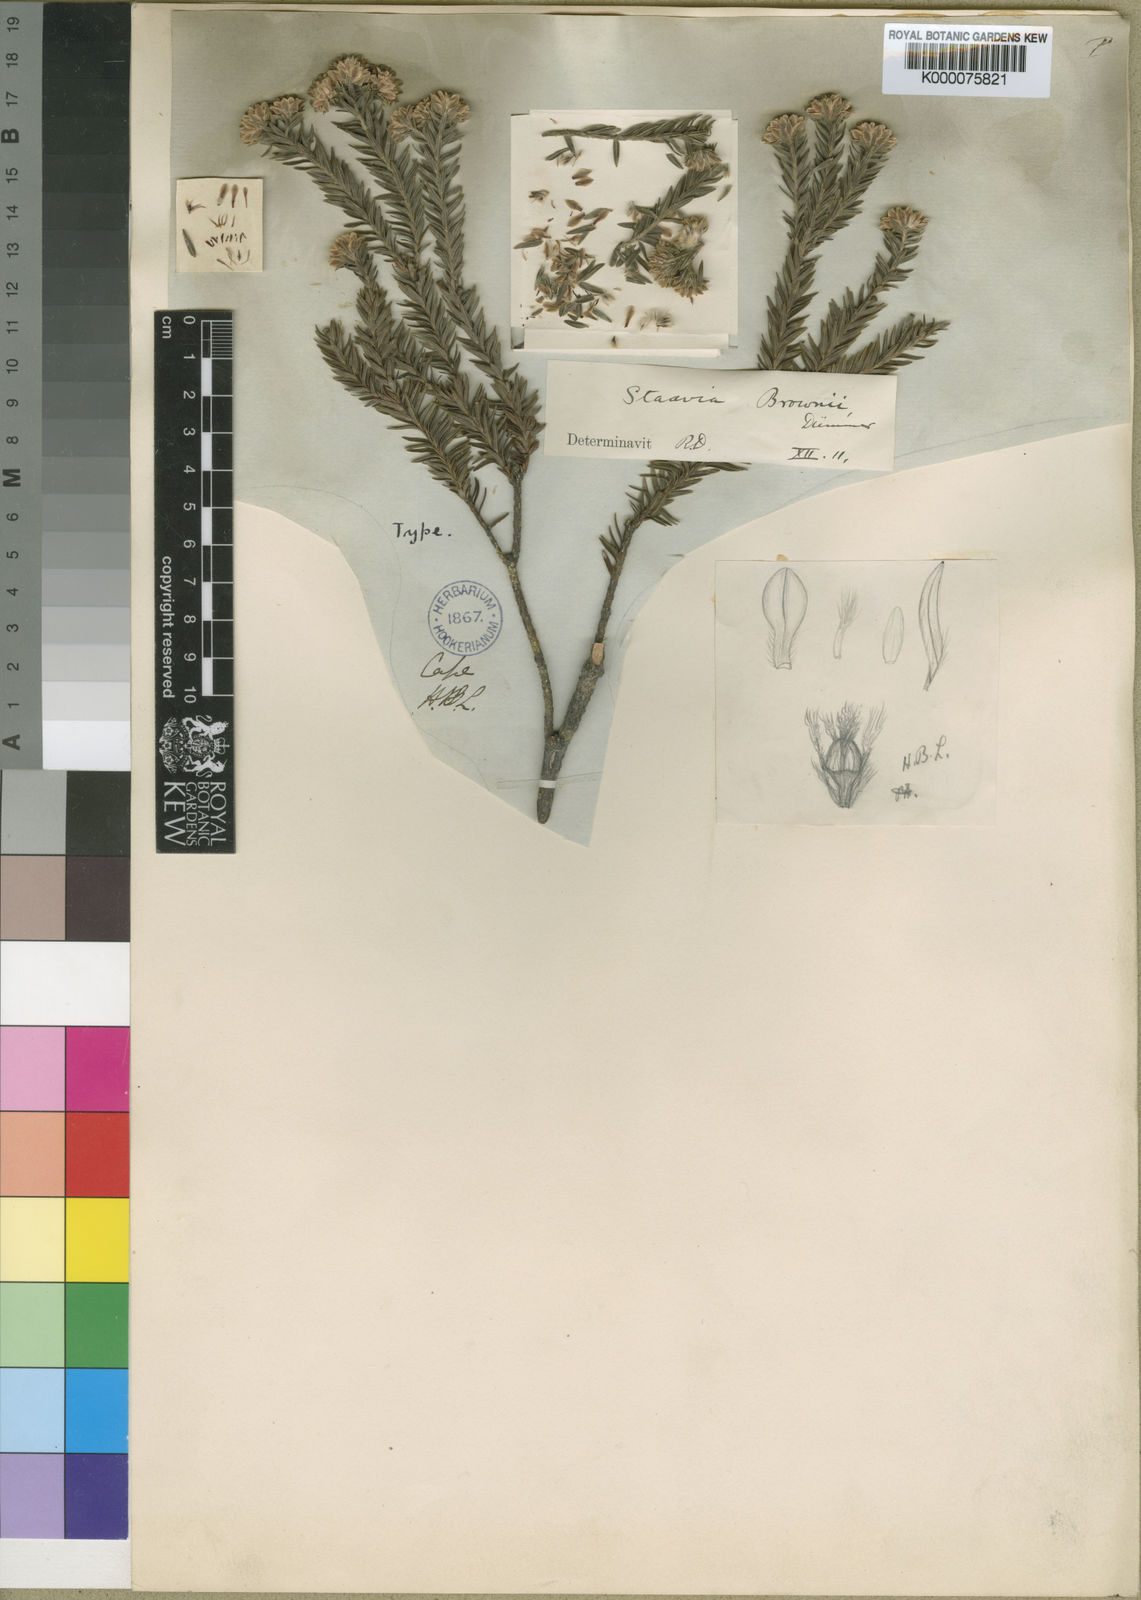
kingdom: Plantae
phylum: Tracheophyta
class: Magnoliopsida
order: Bruniales
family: Bruniaceae
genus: Staavia
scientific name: Staavia brownii
